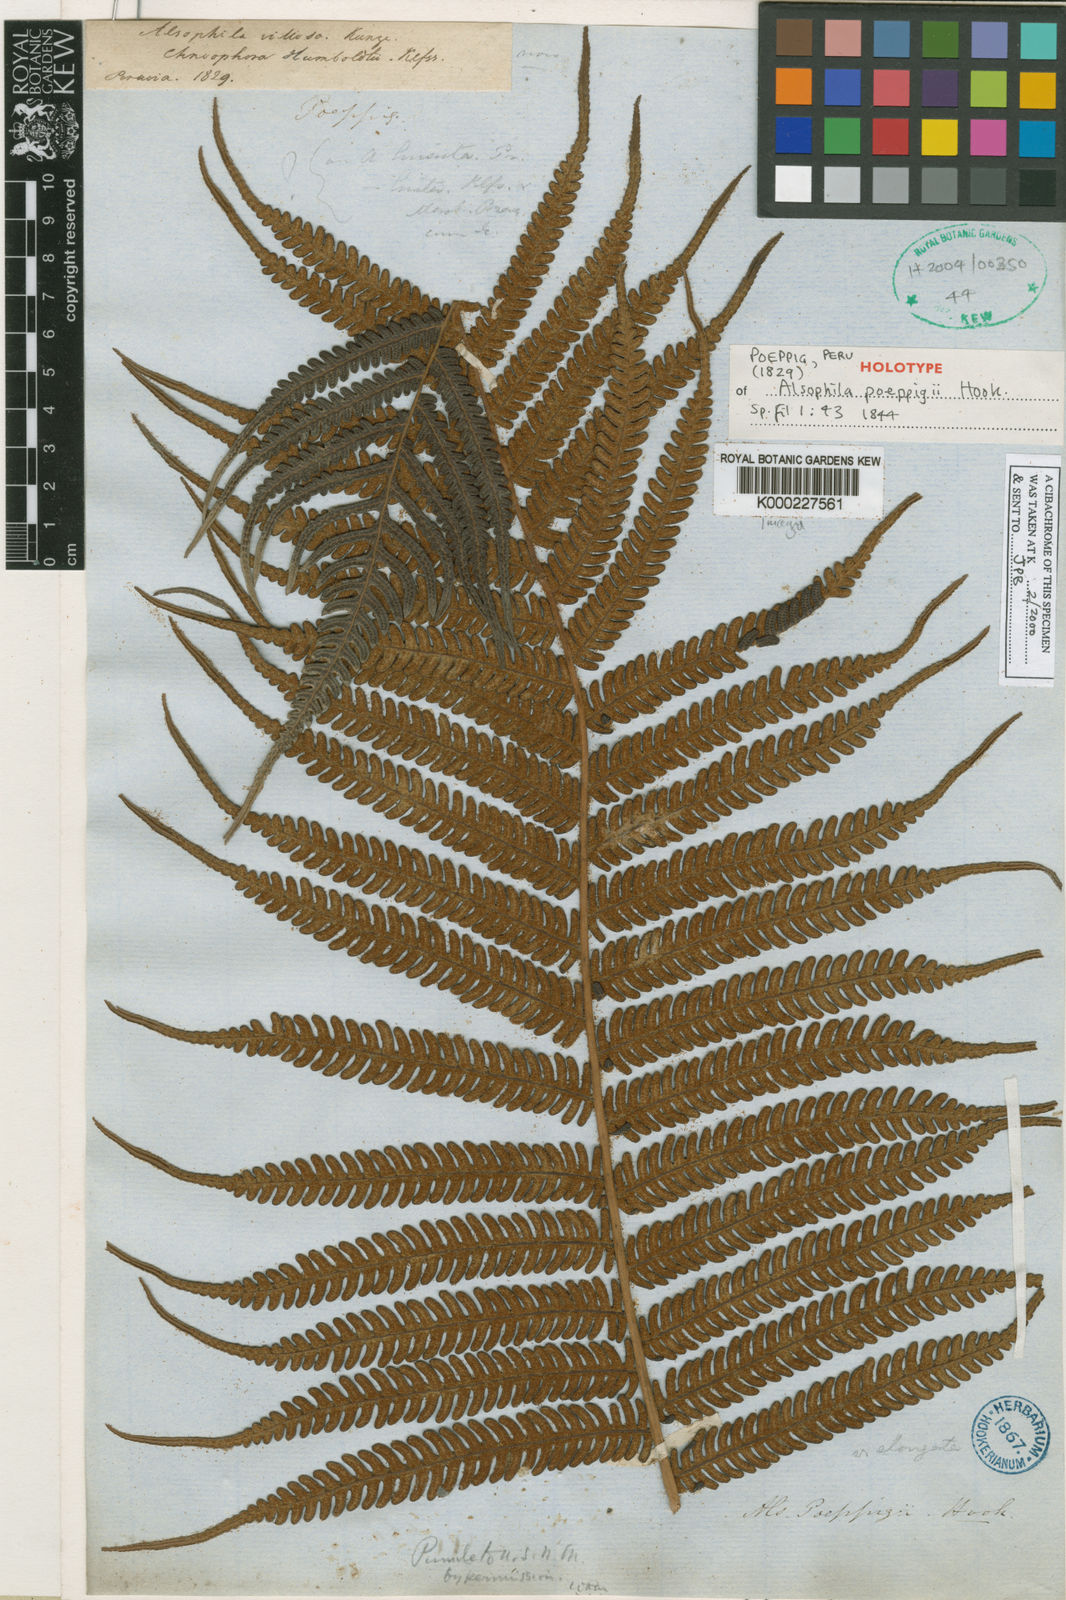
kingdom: Plantae
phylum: Tracheophyta
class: Polypodiopsida
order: Cyatheales
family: Cyatheaceae
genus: Alsophila
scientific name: Alsophila engelii
